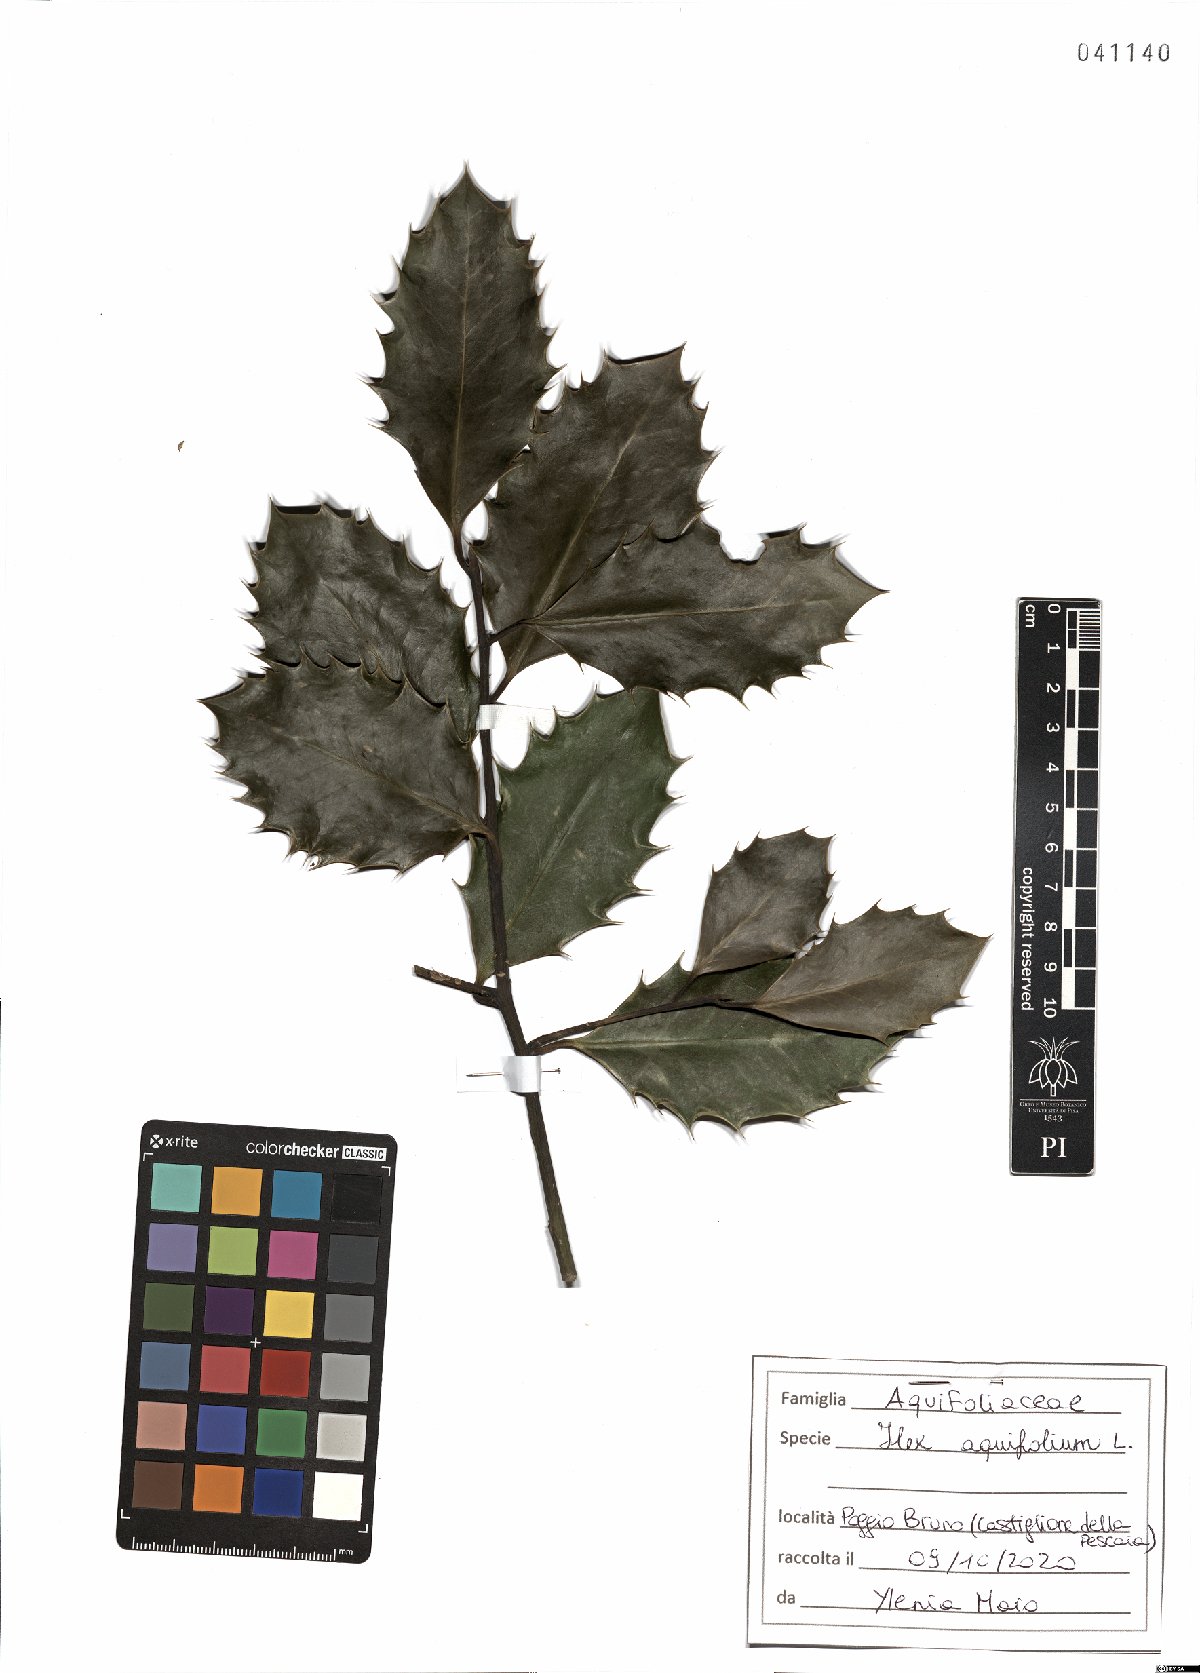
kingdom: Plantae
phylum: Tracheophyta
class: Magnoliopsida
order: Aquifoliales
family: Aquifoliaceae
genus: Ilex
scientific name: Ilex aquifolium
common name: English holly
